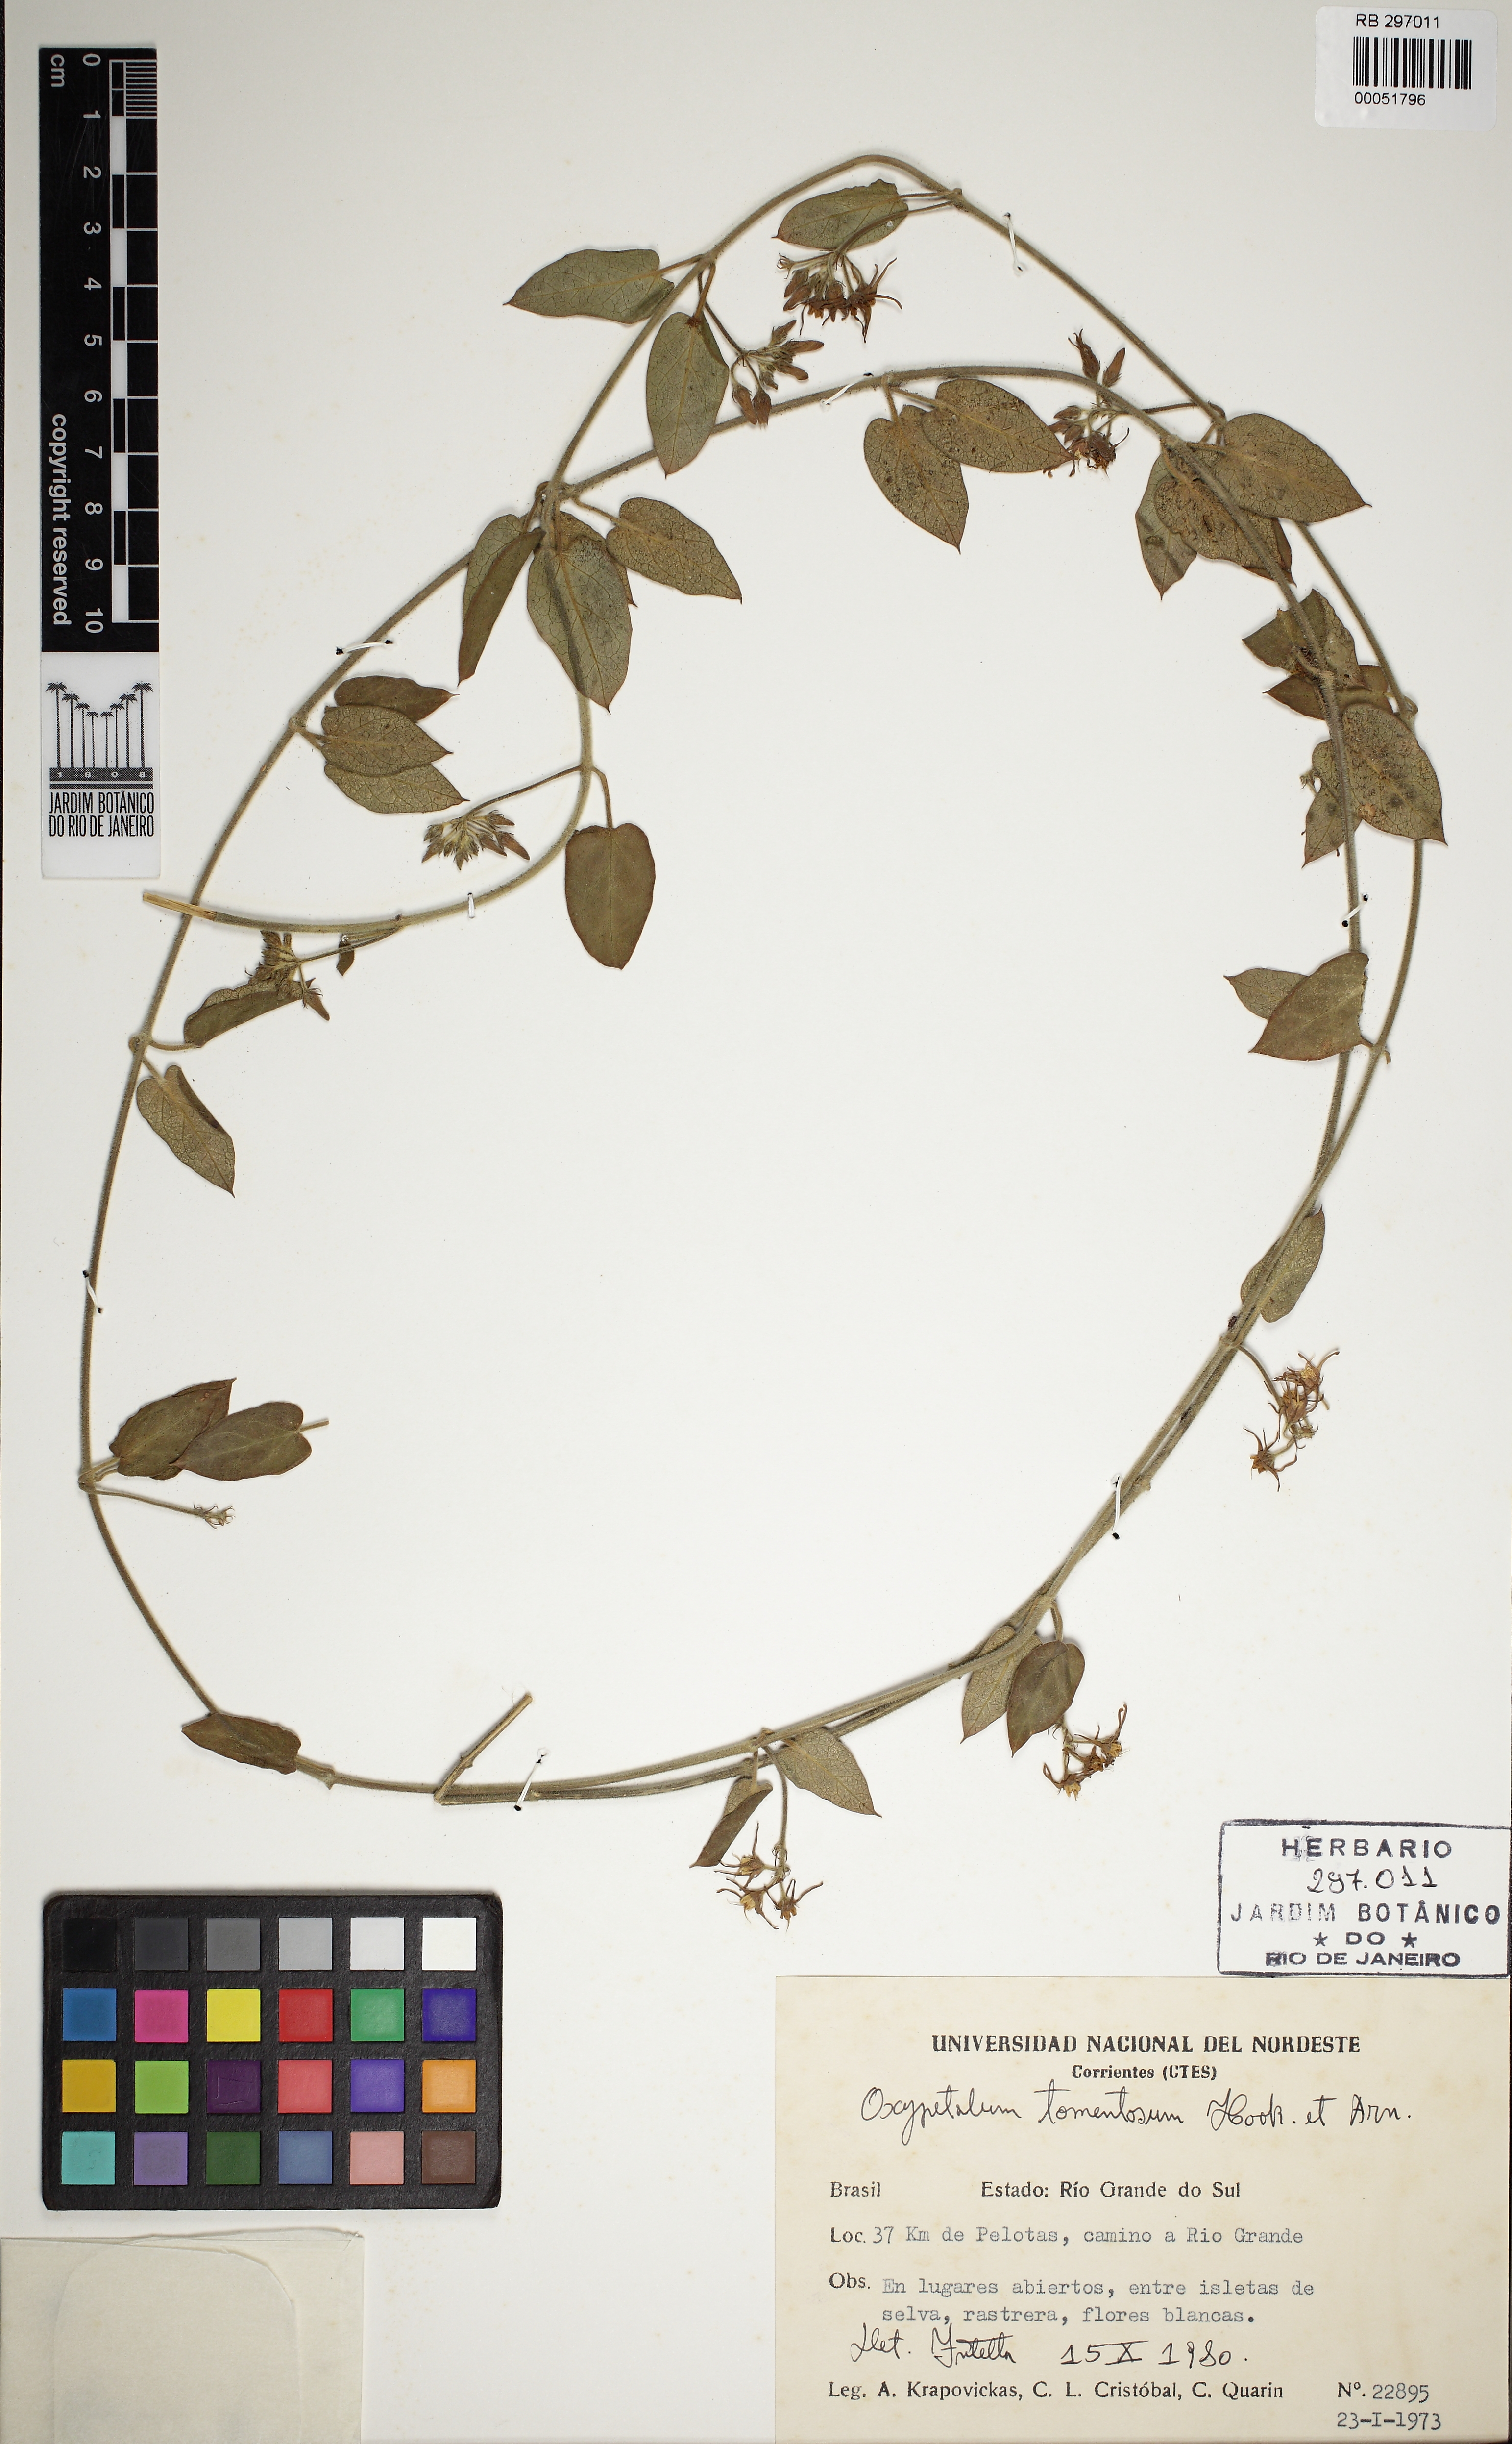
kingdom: Plantae
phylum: Tracheophyta
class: Magnoliopsida
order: Gentianales
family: Apocynaceae
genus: Oxypetalum
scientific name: Oxypetalum tomentosum
